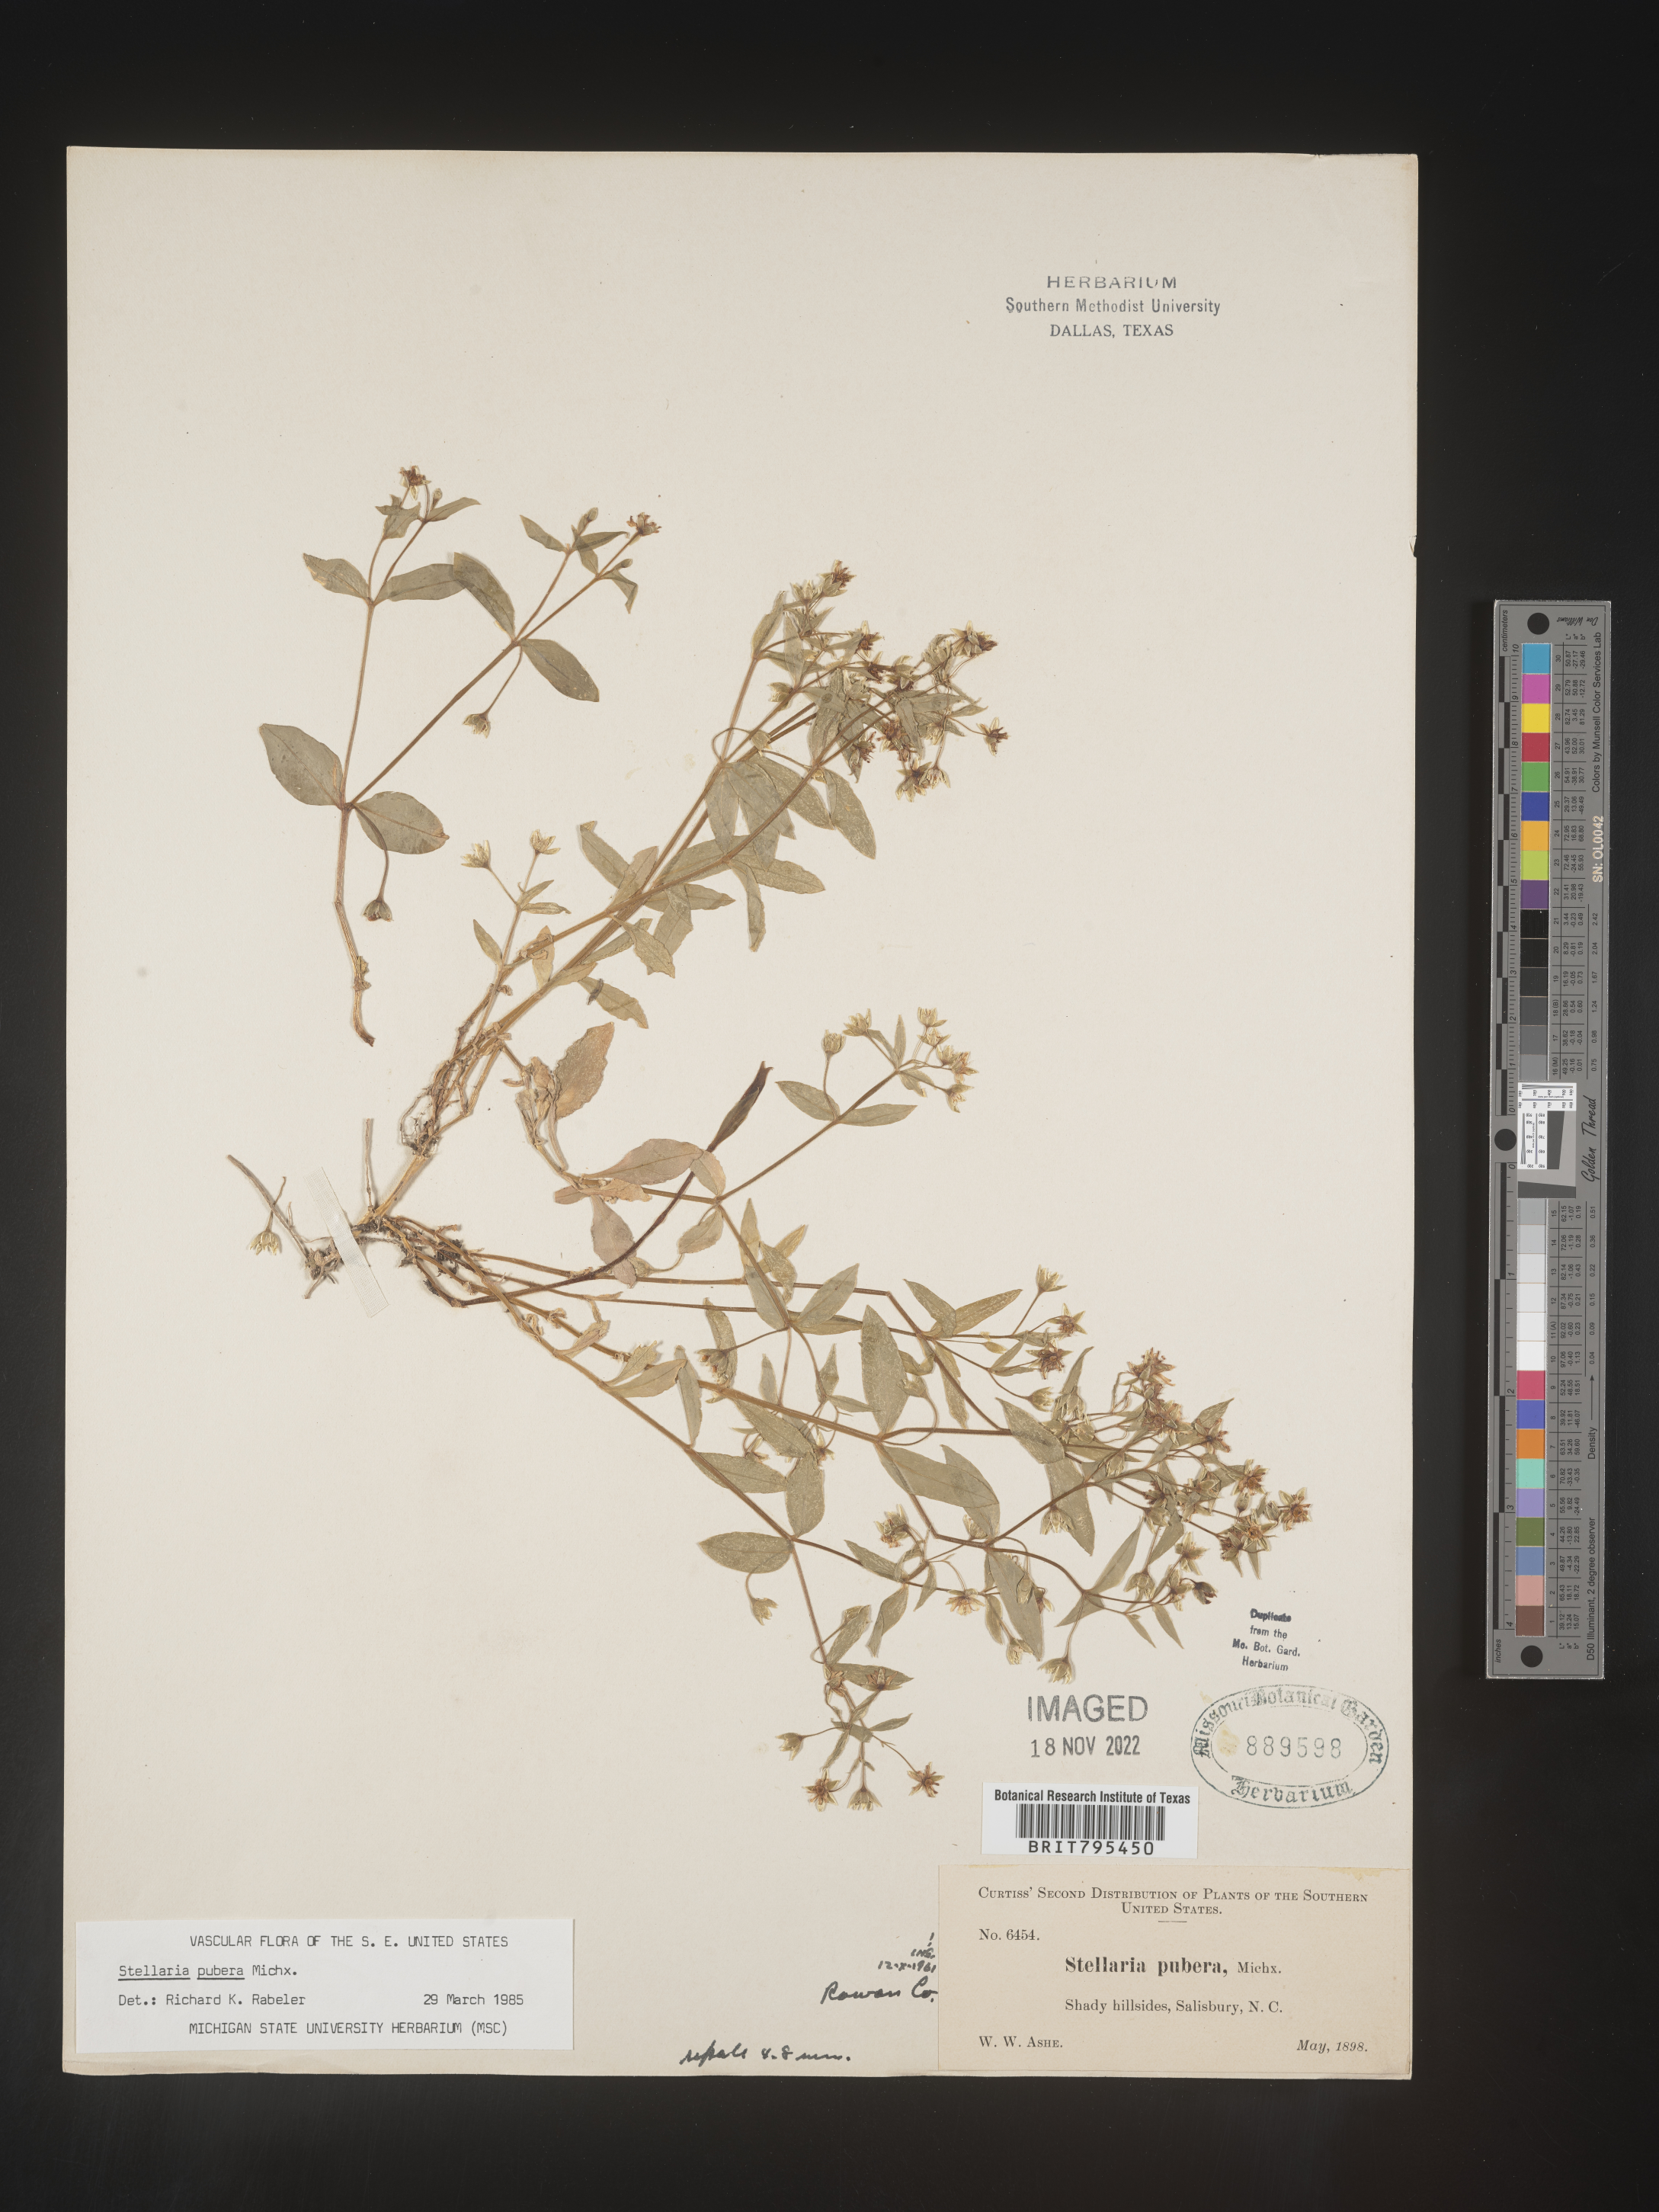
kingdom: Plantae
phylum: Tracheophyta
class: Magnoliopsida
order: Caryophyllales
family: Caryophyllaceae
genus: Stellaria
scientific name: Stellaria pubera
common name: Star chickweed
